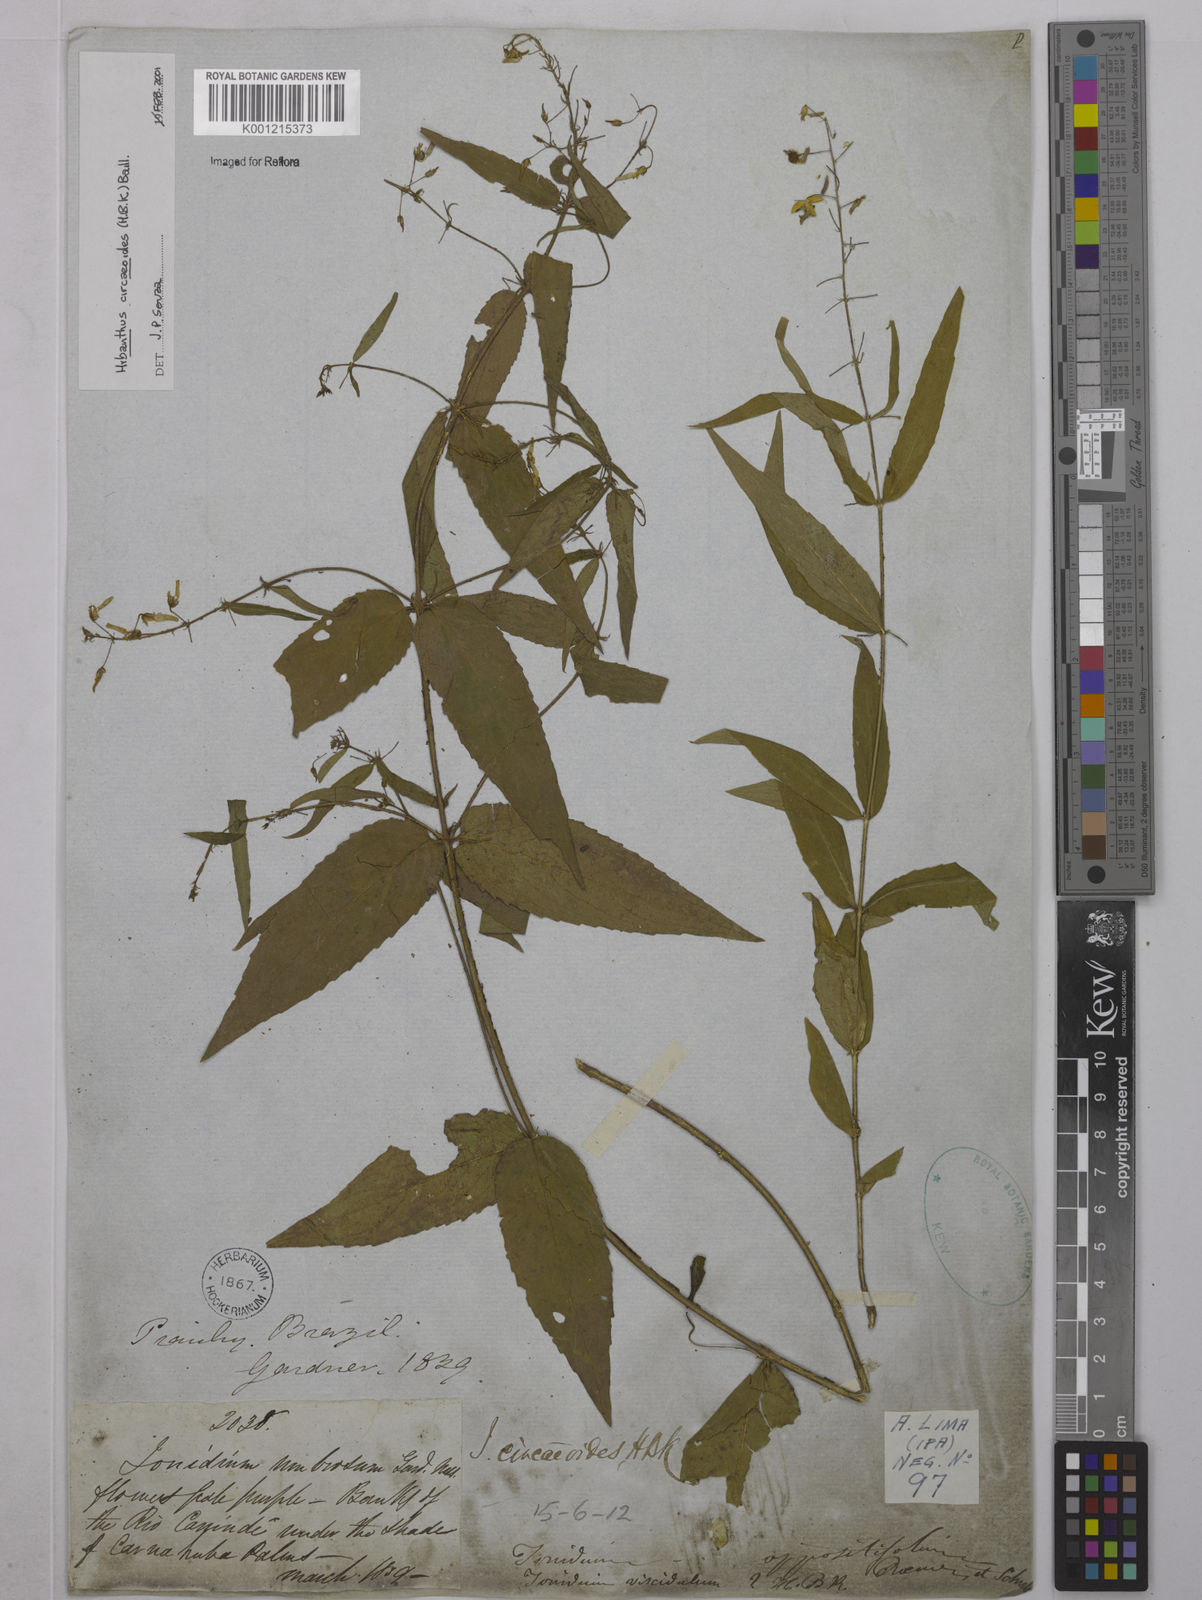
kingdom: Plantae
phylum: Tracheophyta
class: Magnoliopsida
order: Malpighiales
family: Violaceae
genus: Pombalia
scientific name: Pombalia communis
